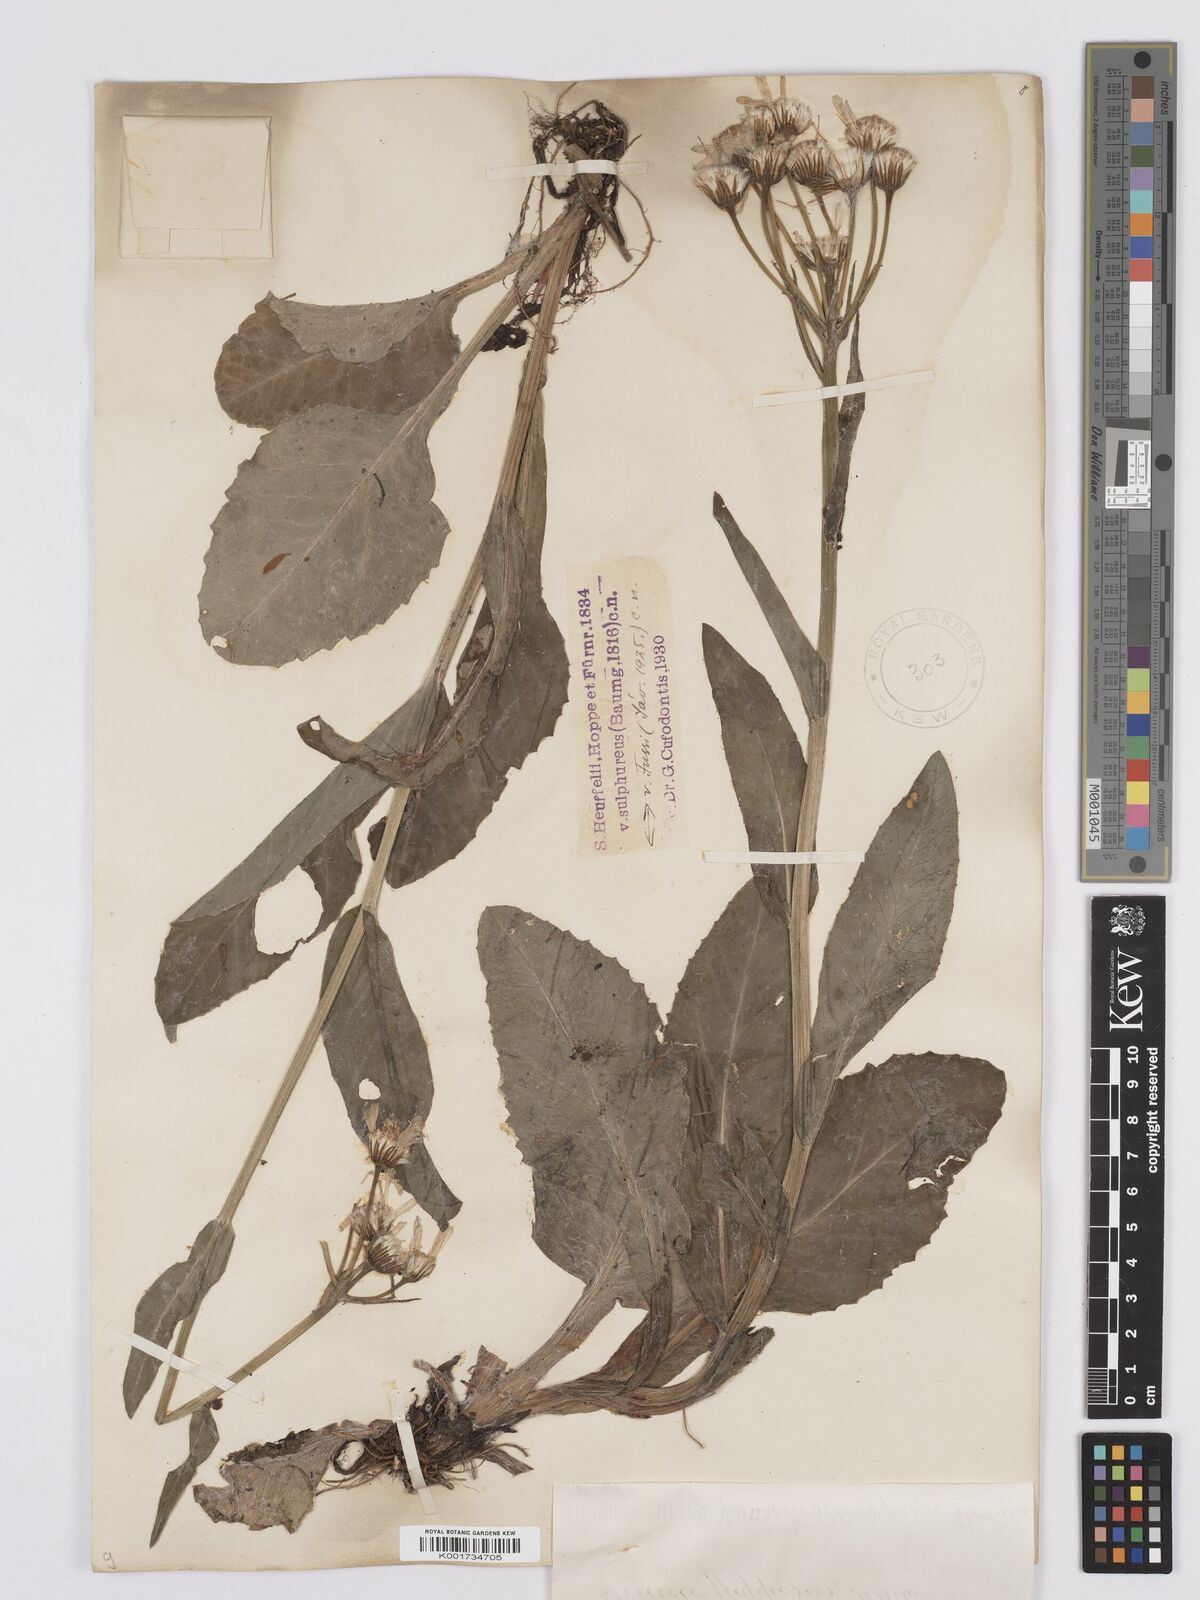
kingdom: Plantae
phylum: Tracheophyta
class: Magnoliopsida
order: Asterales
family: Asteraceae
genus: Tephroseris
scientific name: Tephroseris papposa
